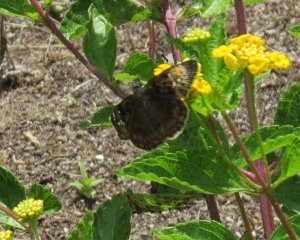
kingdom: Animalia
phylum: Arthropoda
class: Insecta
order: Lepidoptera
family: Hesperiidae
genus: Gesta
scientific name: Gesta
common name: Horace's Duskywing
